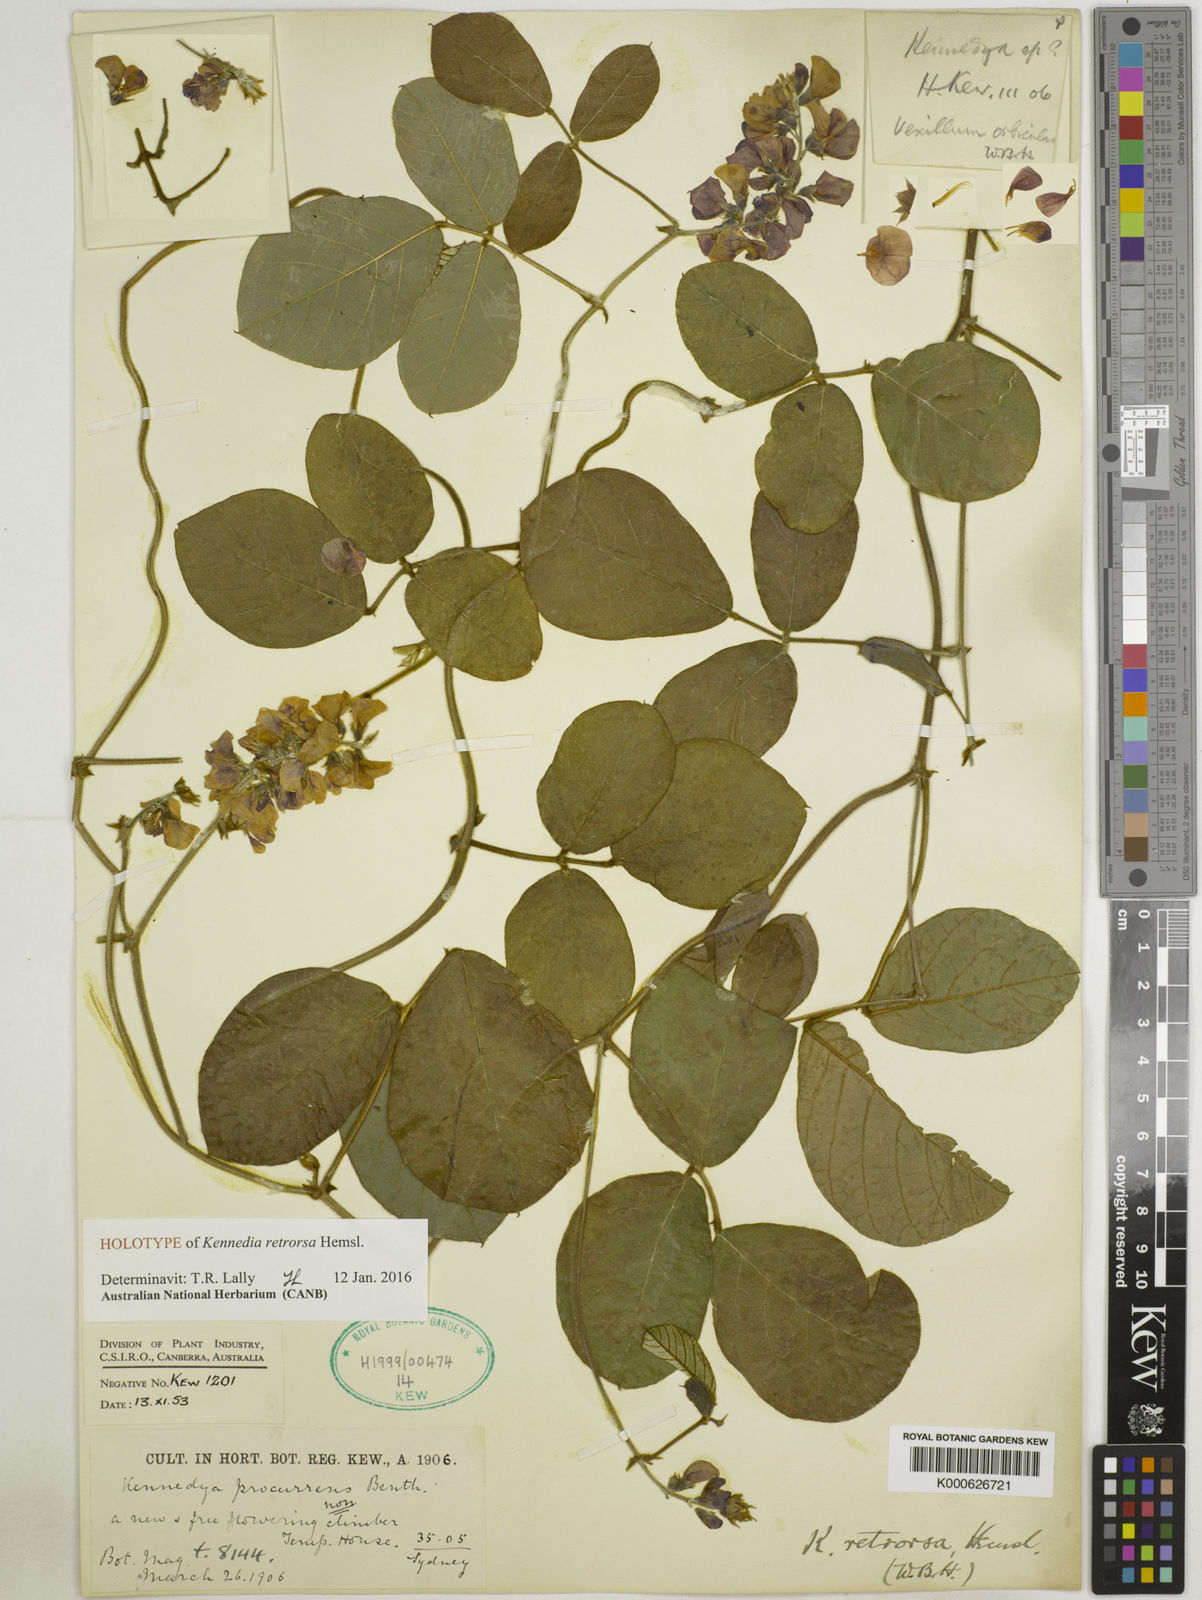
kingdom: Plantae
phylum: Tracheophyta
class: Magnoliopsida
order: Fabales
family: Fabaceae
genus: Kennedia
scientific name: Kennedia retrorsa
